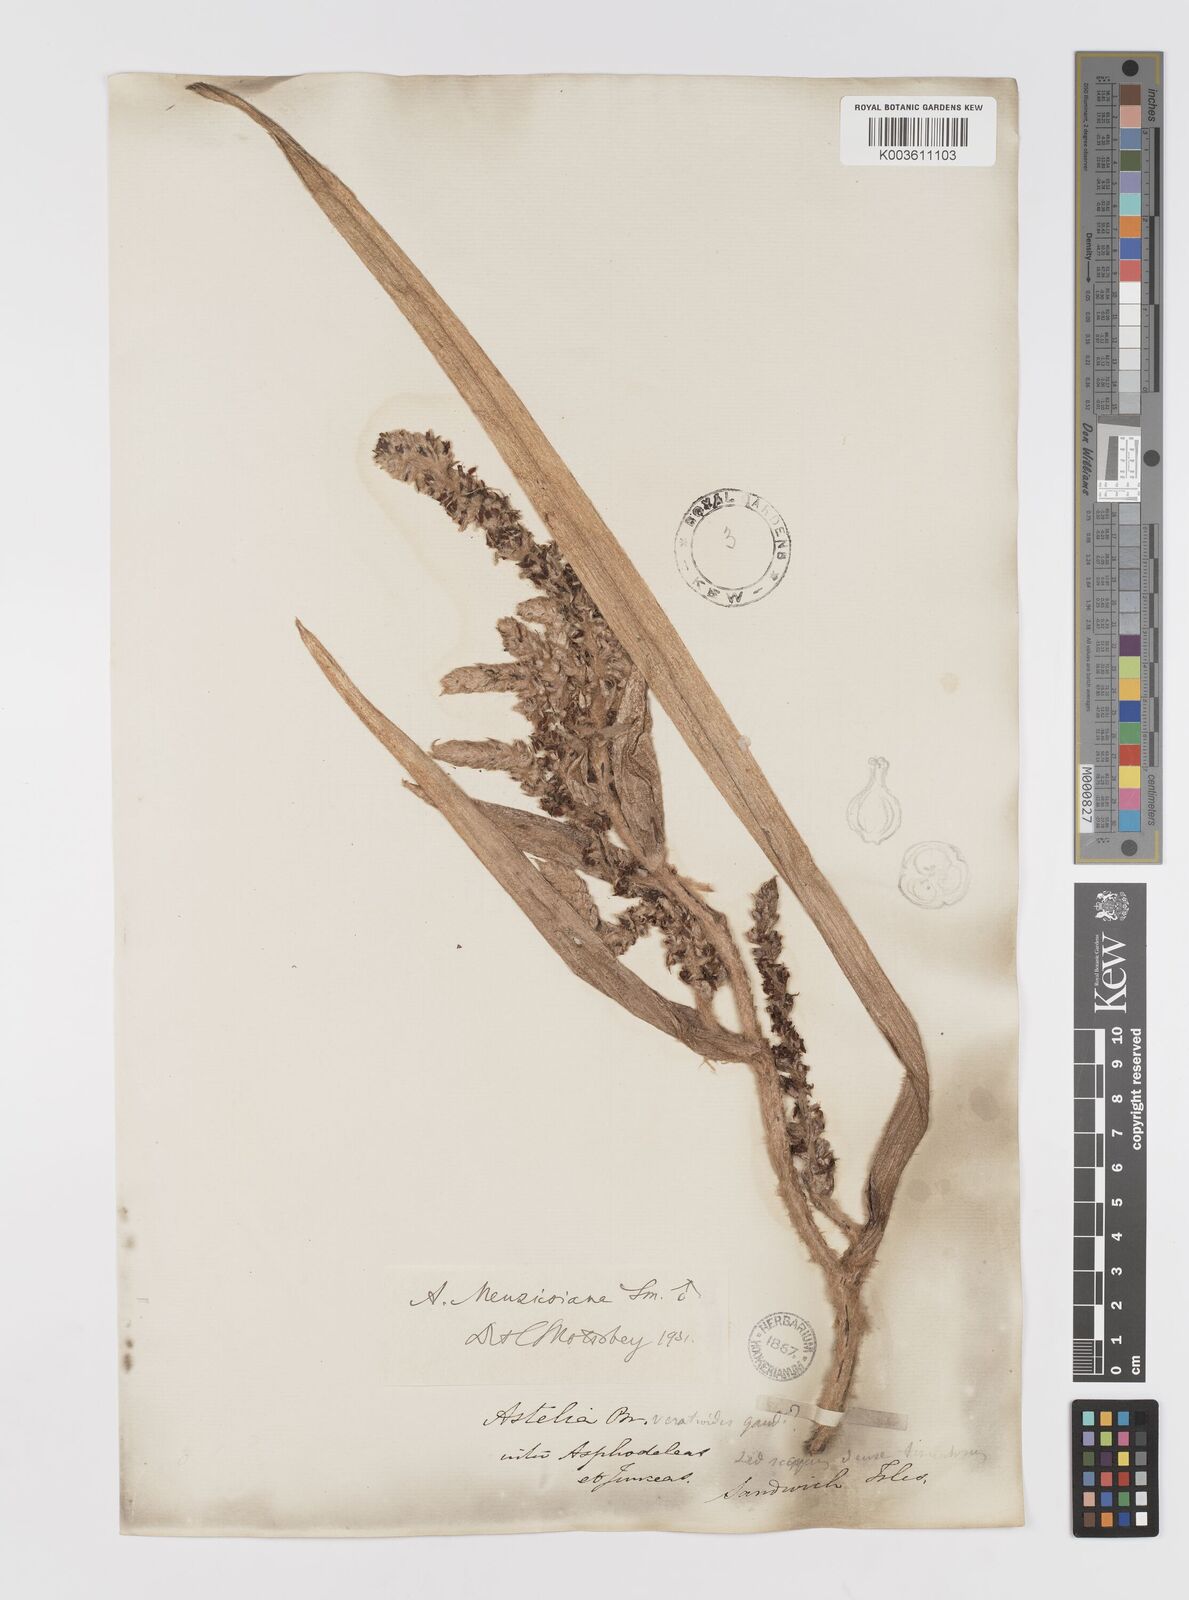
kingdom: Plantae
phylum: Tracheophyta
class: Liliopsida
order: Asparagales
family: Asteliaceae
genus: Astelia
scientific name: Astelia menziesiana
